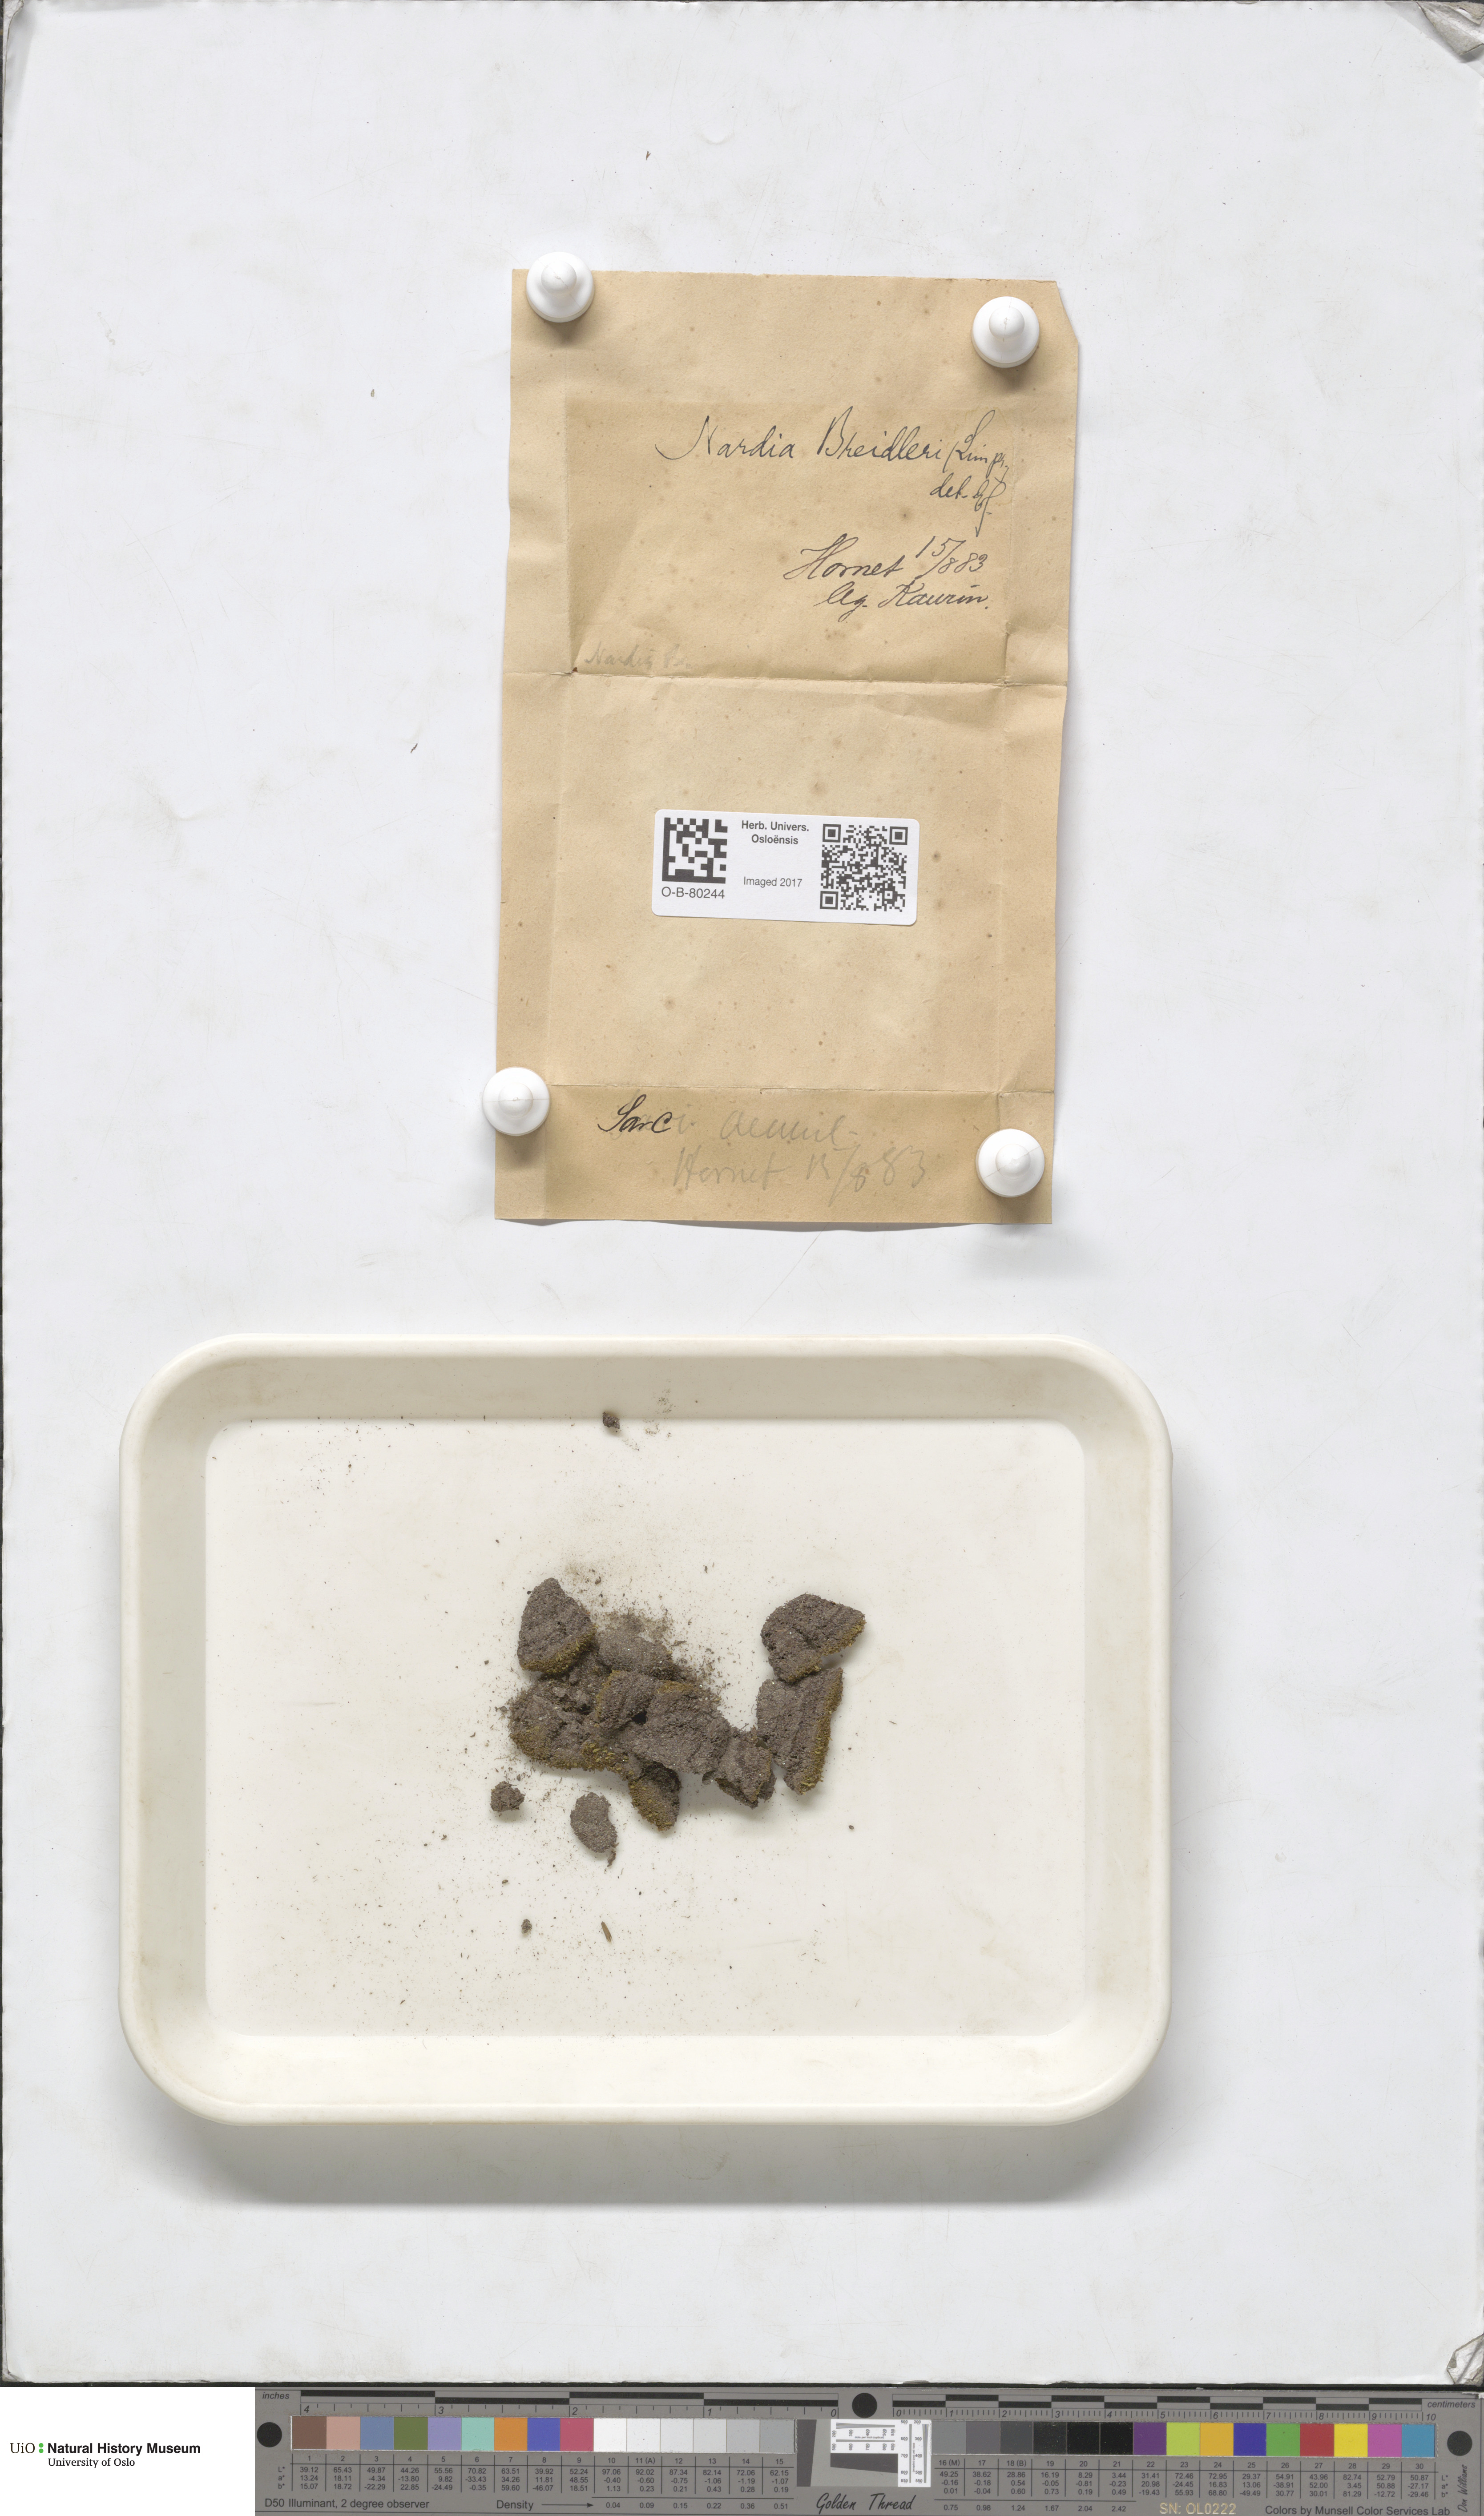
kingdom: Plantae
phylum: Marchantiophyta
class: Jungermanniopsida
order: Jungermanniales
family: Gymnomitriaceae
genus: Nardia
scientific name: Nardia breidleri
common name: Book flapwort
